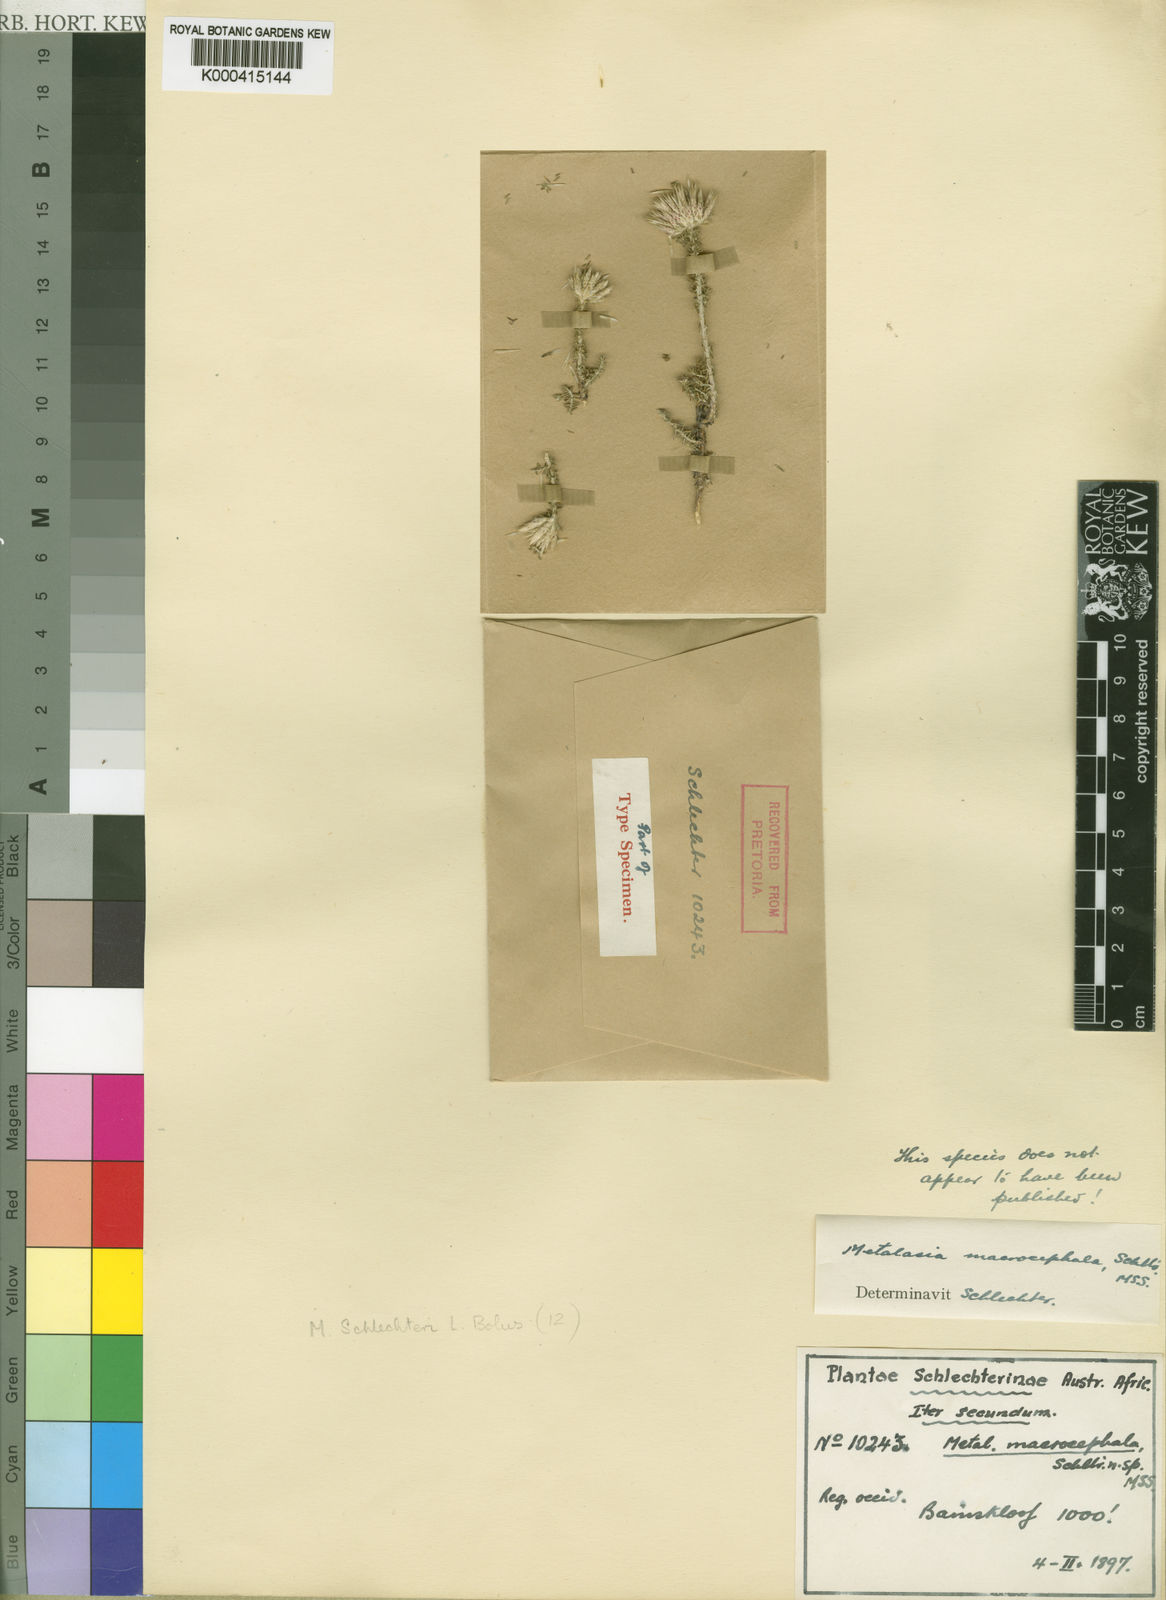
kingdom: Plantae
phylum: Tracheophyta
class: Magnoliopsida
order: Asterales
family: Asteraceae
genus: Planea
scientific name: Planea schlechteri
